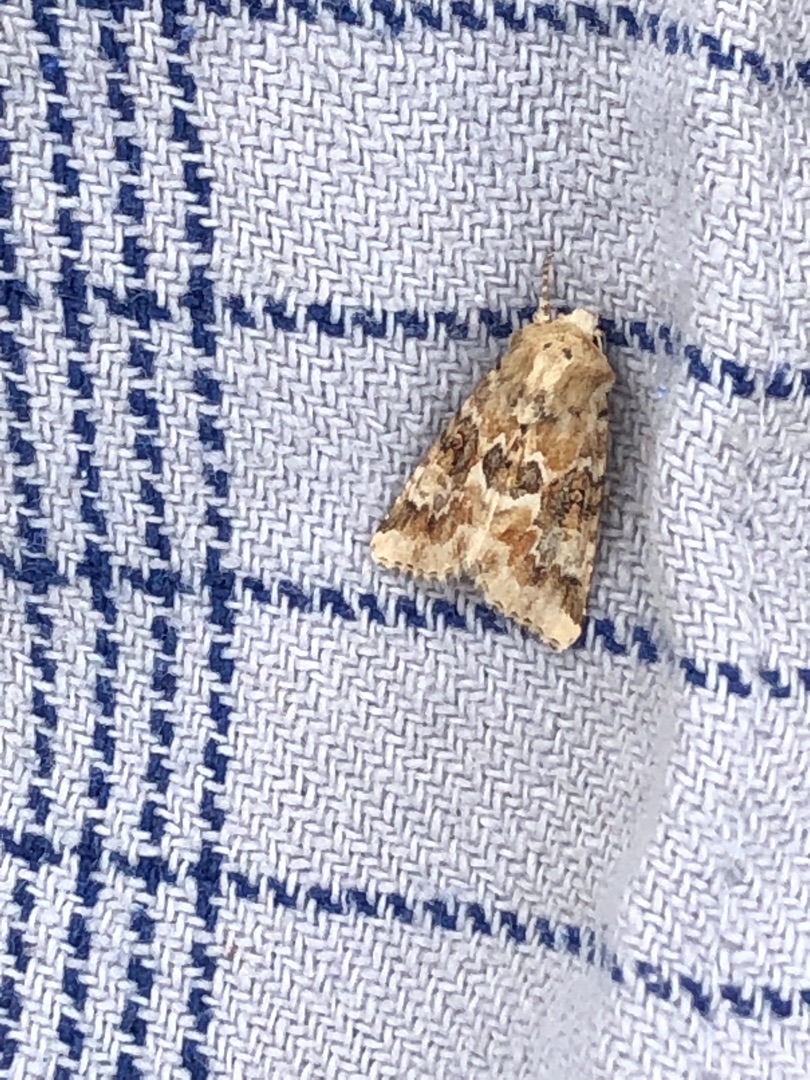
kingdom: Animalia
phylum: Arthropoda
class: Insecta
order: Lepidoptera
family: Noctuidae
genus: Eremobia
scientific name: Eremobia ochroleuca
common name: Blomster-stængelugle
